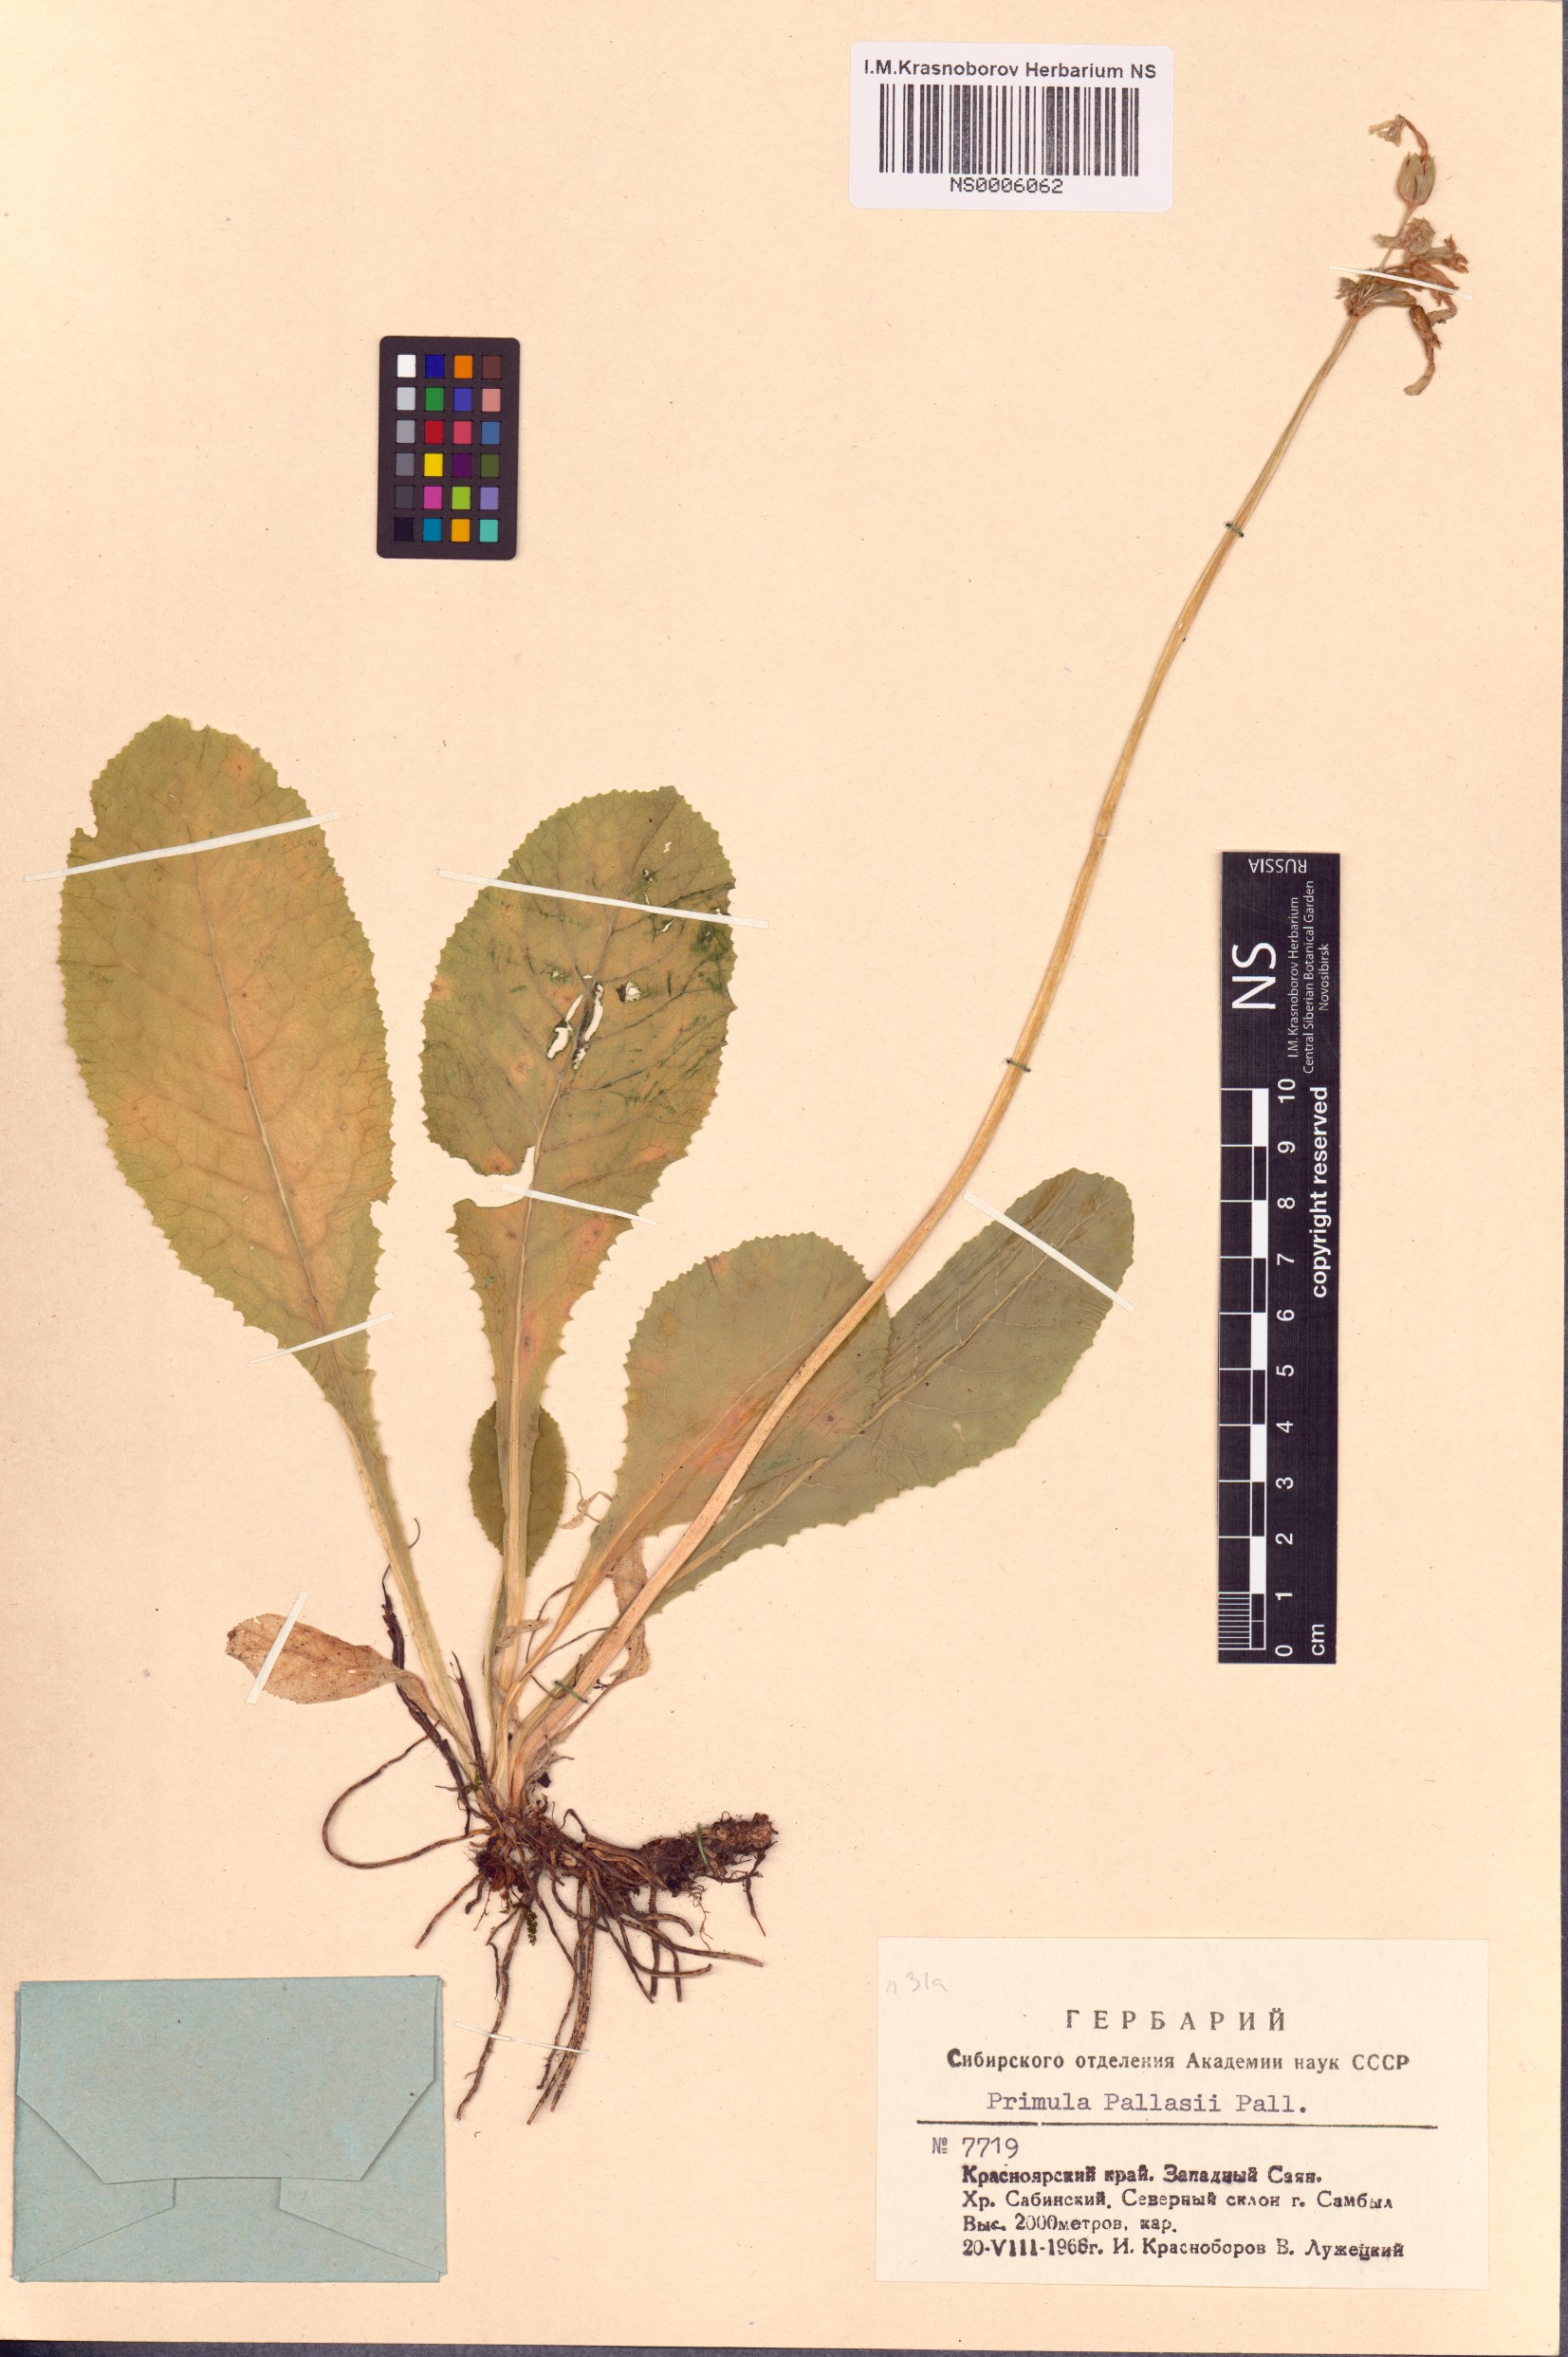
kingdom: Plantae
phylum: Tracheophyta
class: Magnoliopsida
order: Ericales
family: Primulaceae
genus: Primula
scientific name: Primula elatior
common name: Oxlip
